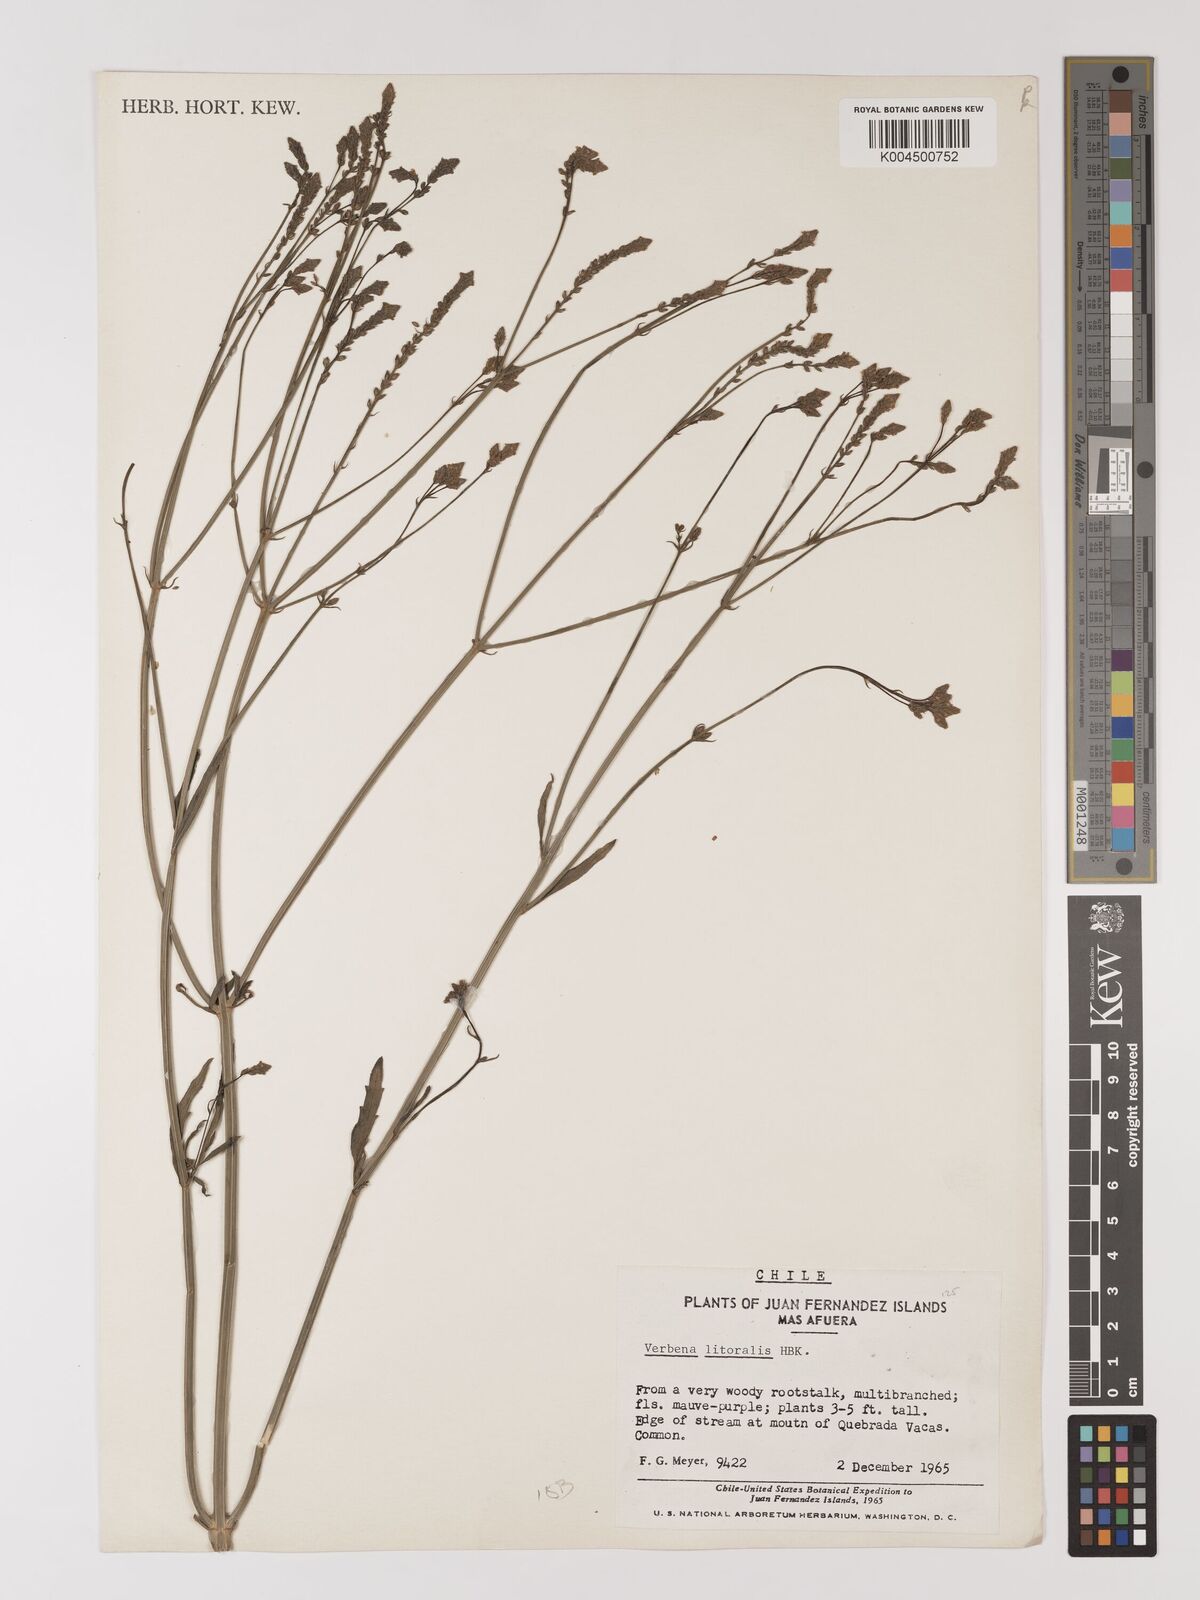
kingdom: Plantae
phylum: Tracheophyta
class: Magnoliopsida
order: Lamiales
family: Verbenaceae
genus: Verbena
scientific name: Verbena litoralis
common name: Seashore vervain
